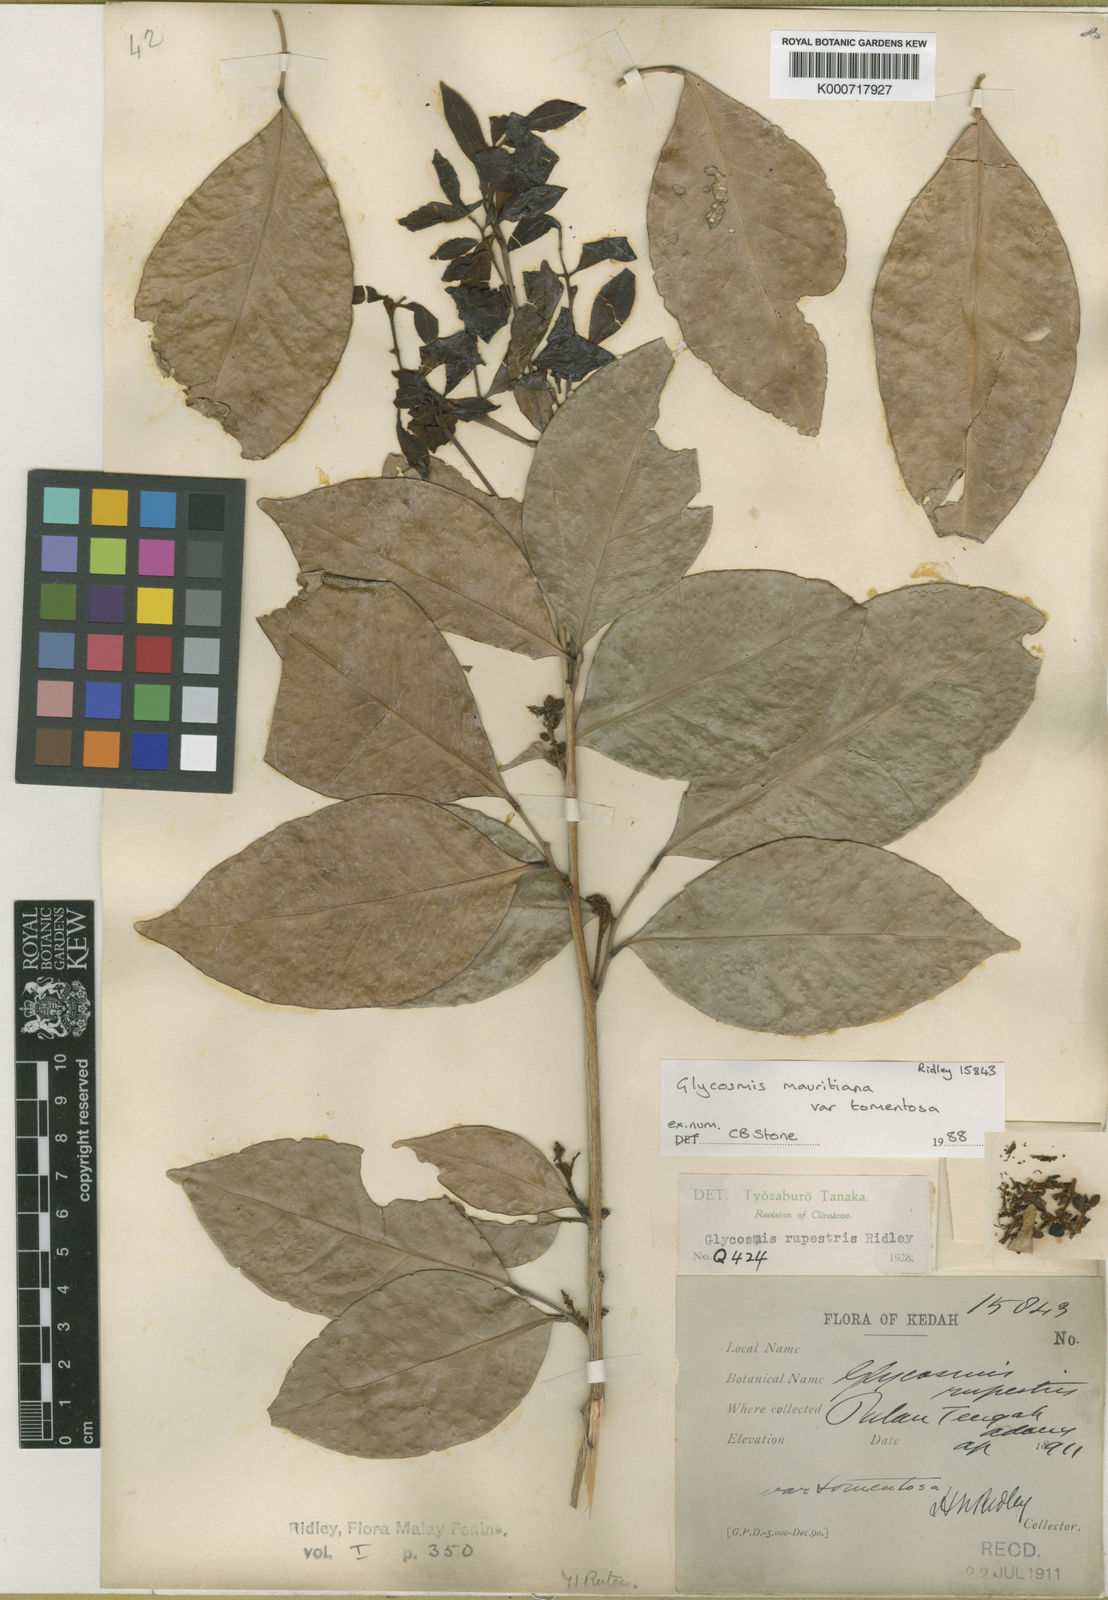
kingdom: Plantae
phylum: Tracheophyta
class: Magnoliopsida
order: Sapindales
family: Rutaceae
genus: Glycosmis
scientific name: Glycosmis mauritiana
